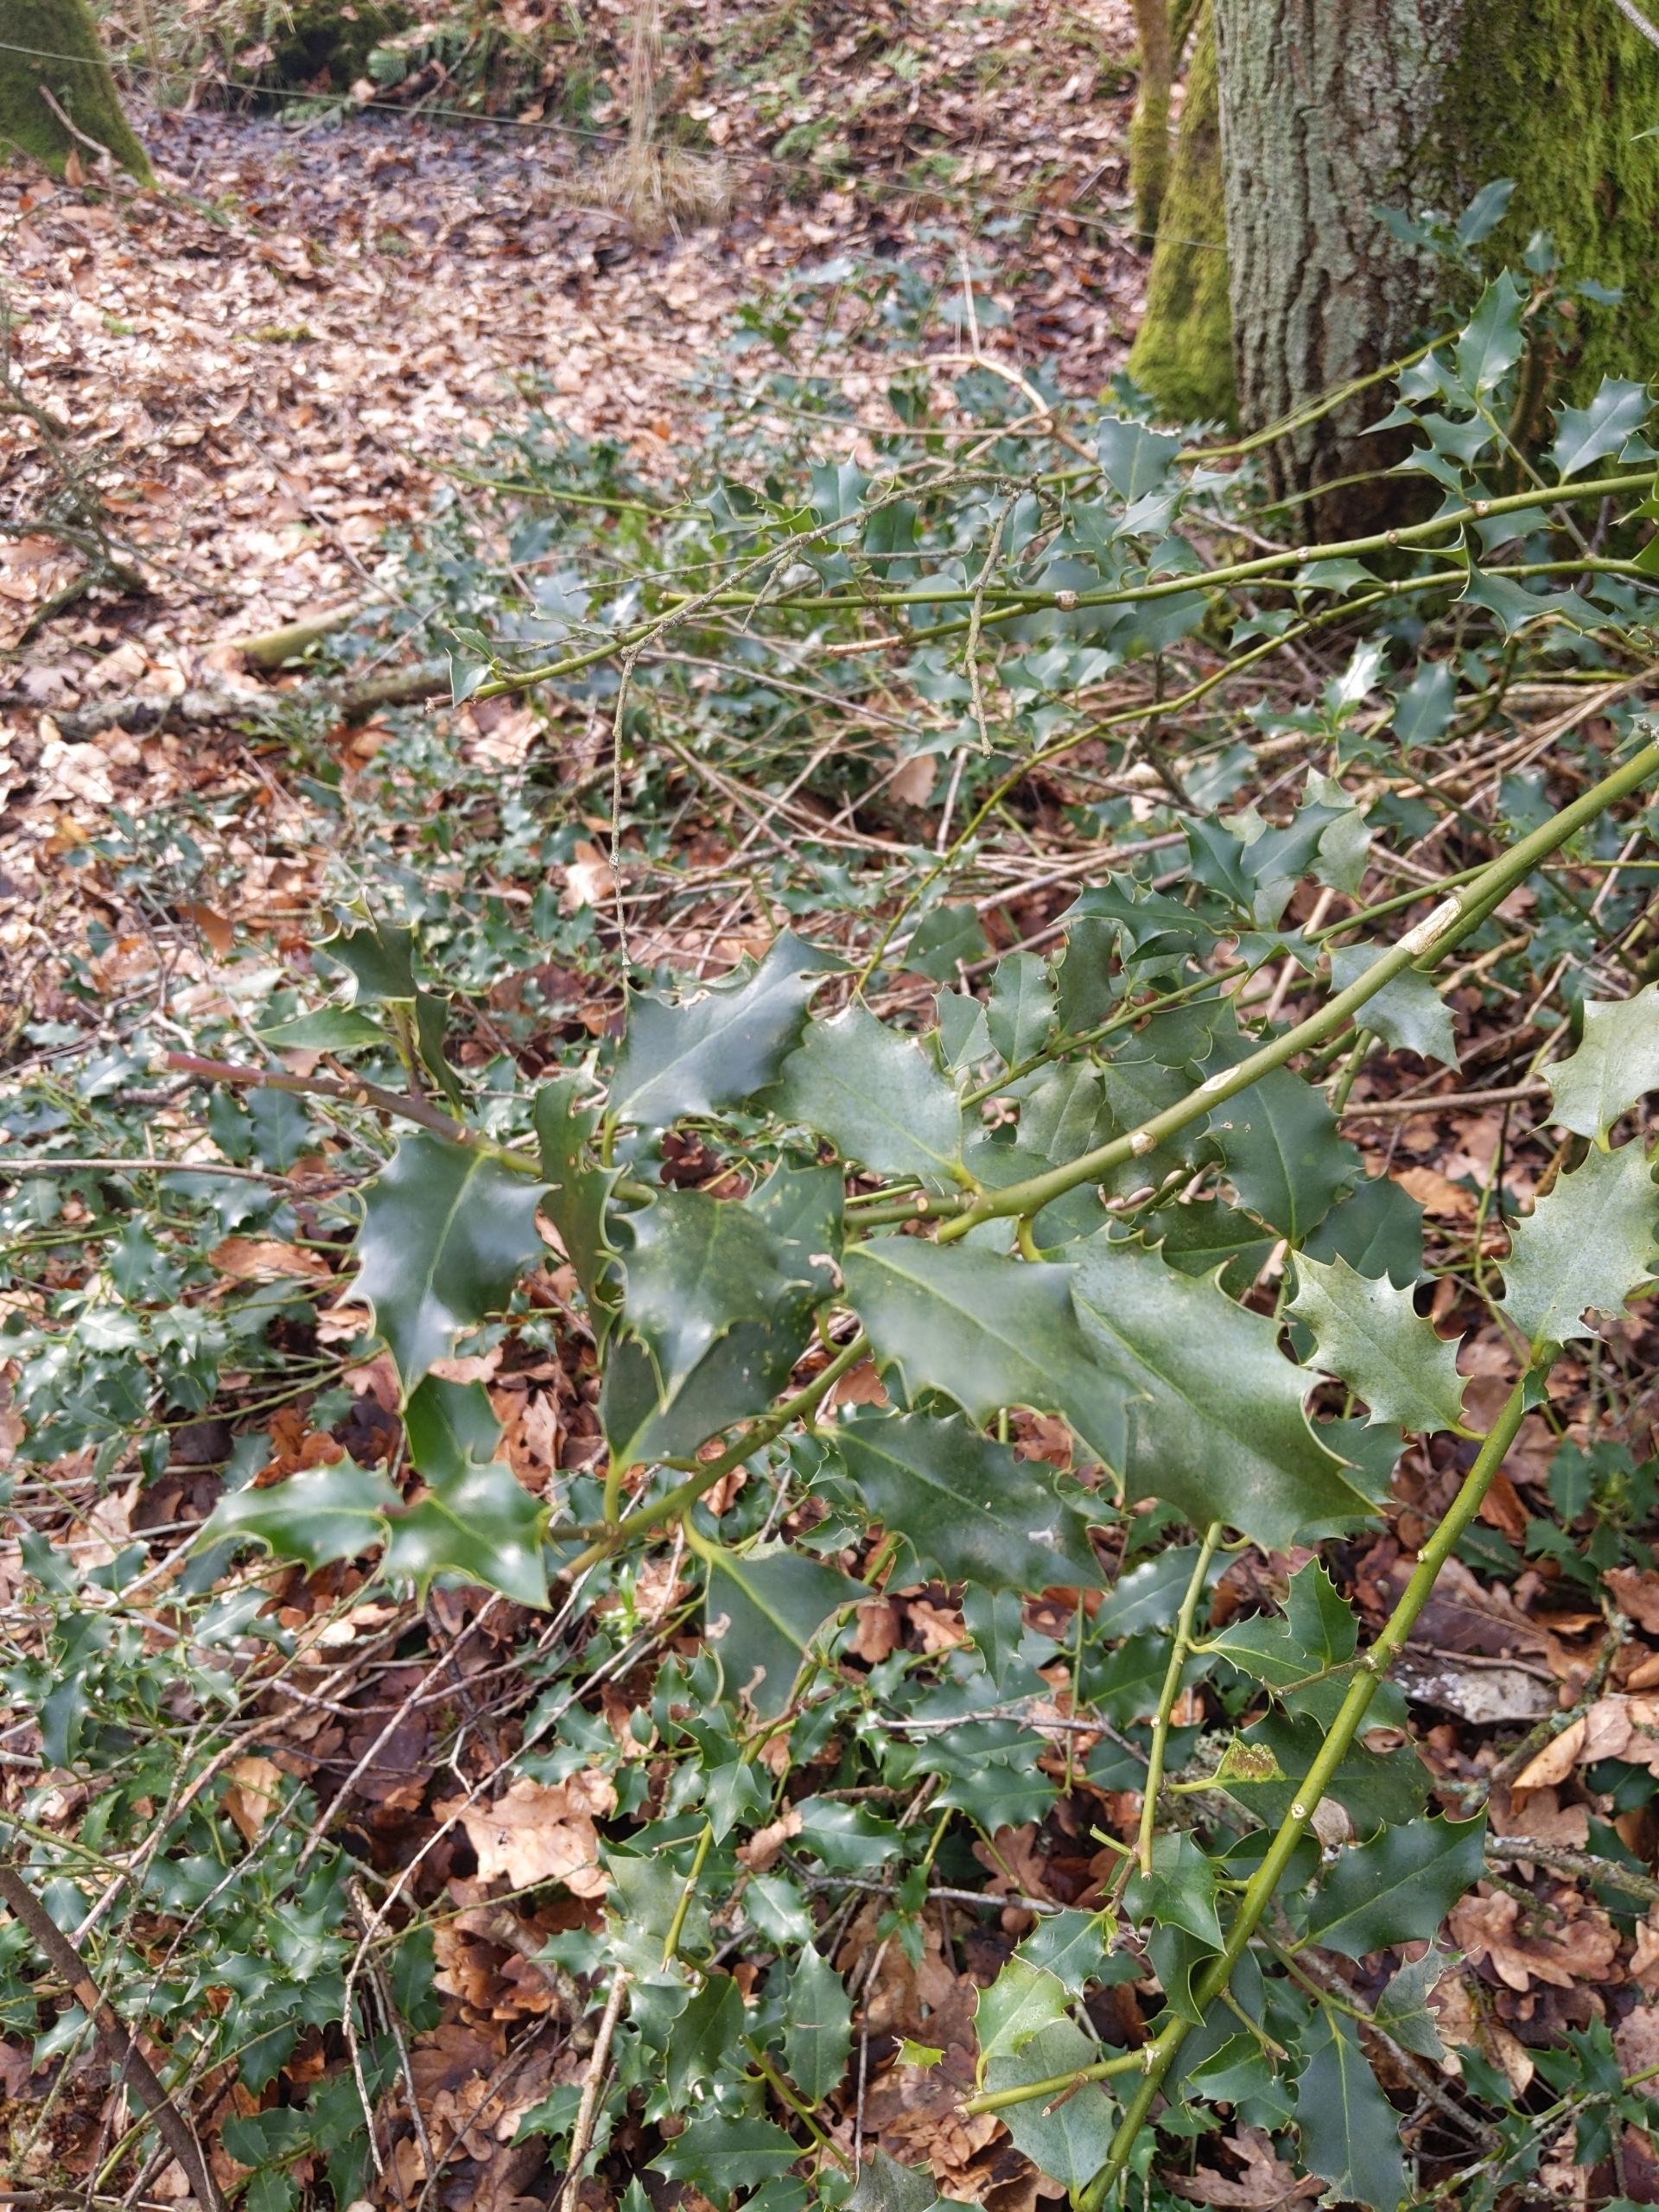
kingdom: Plantae
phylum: Tracheophyta
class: Magnoliopsida
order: Aquifoliales
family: Aquifoliaceae
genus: Ilex
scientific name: Ilex aquifolium
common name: Kristtorn
